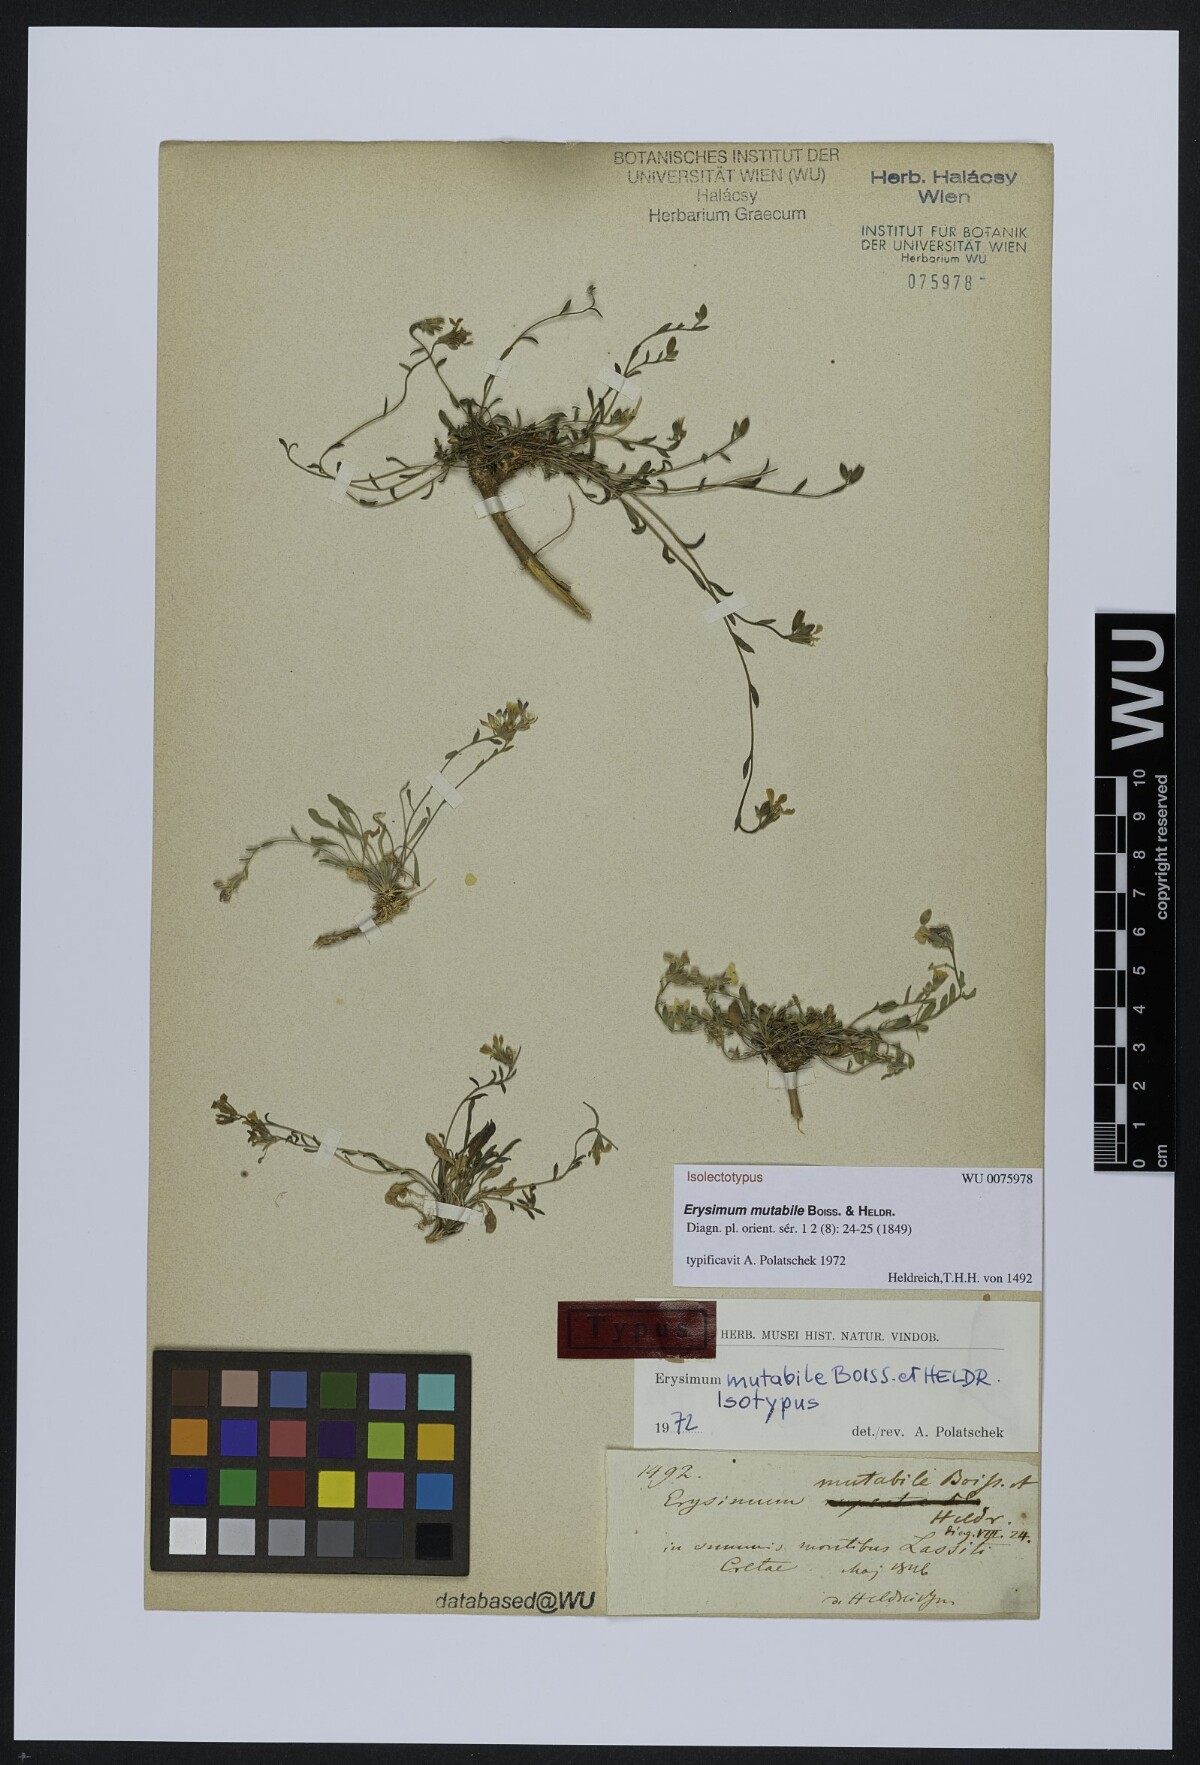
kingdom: Plantae
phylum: Tracheophyta
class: Magnoliopsida
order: Brassicales
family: Brassicaceae
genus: Erysimum
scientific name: Erysimum mutabile
